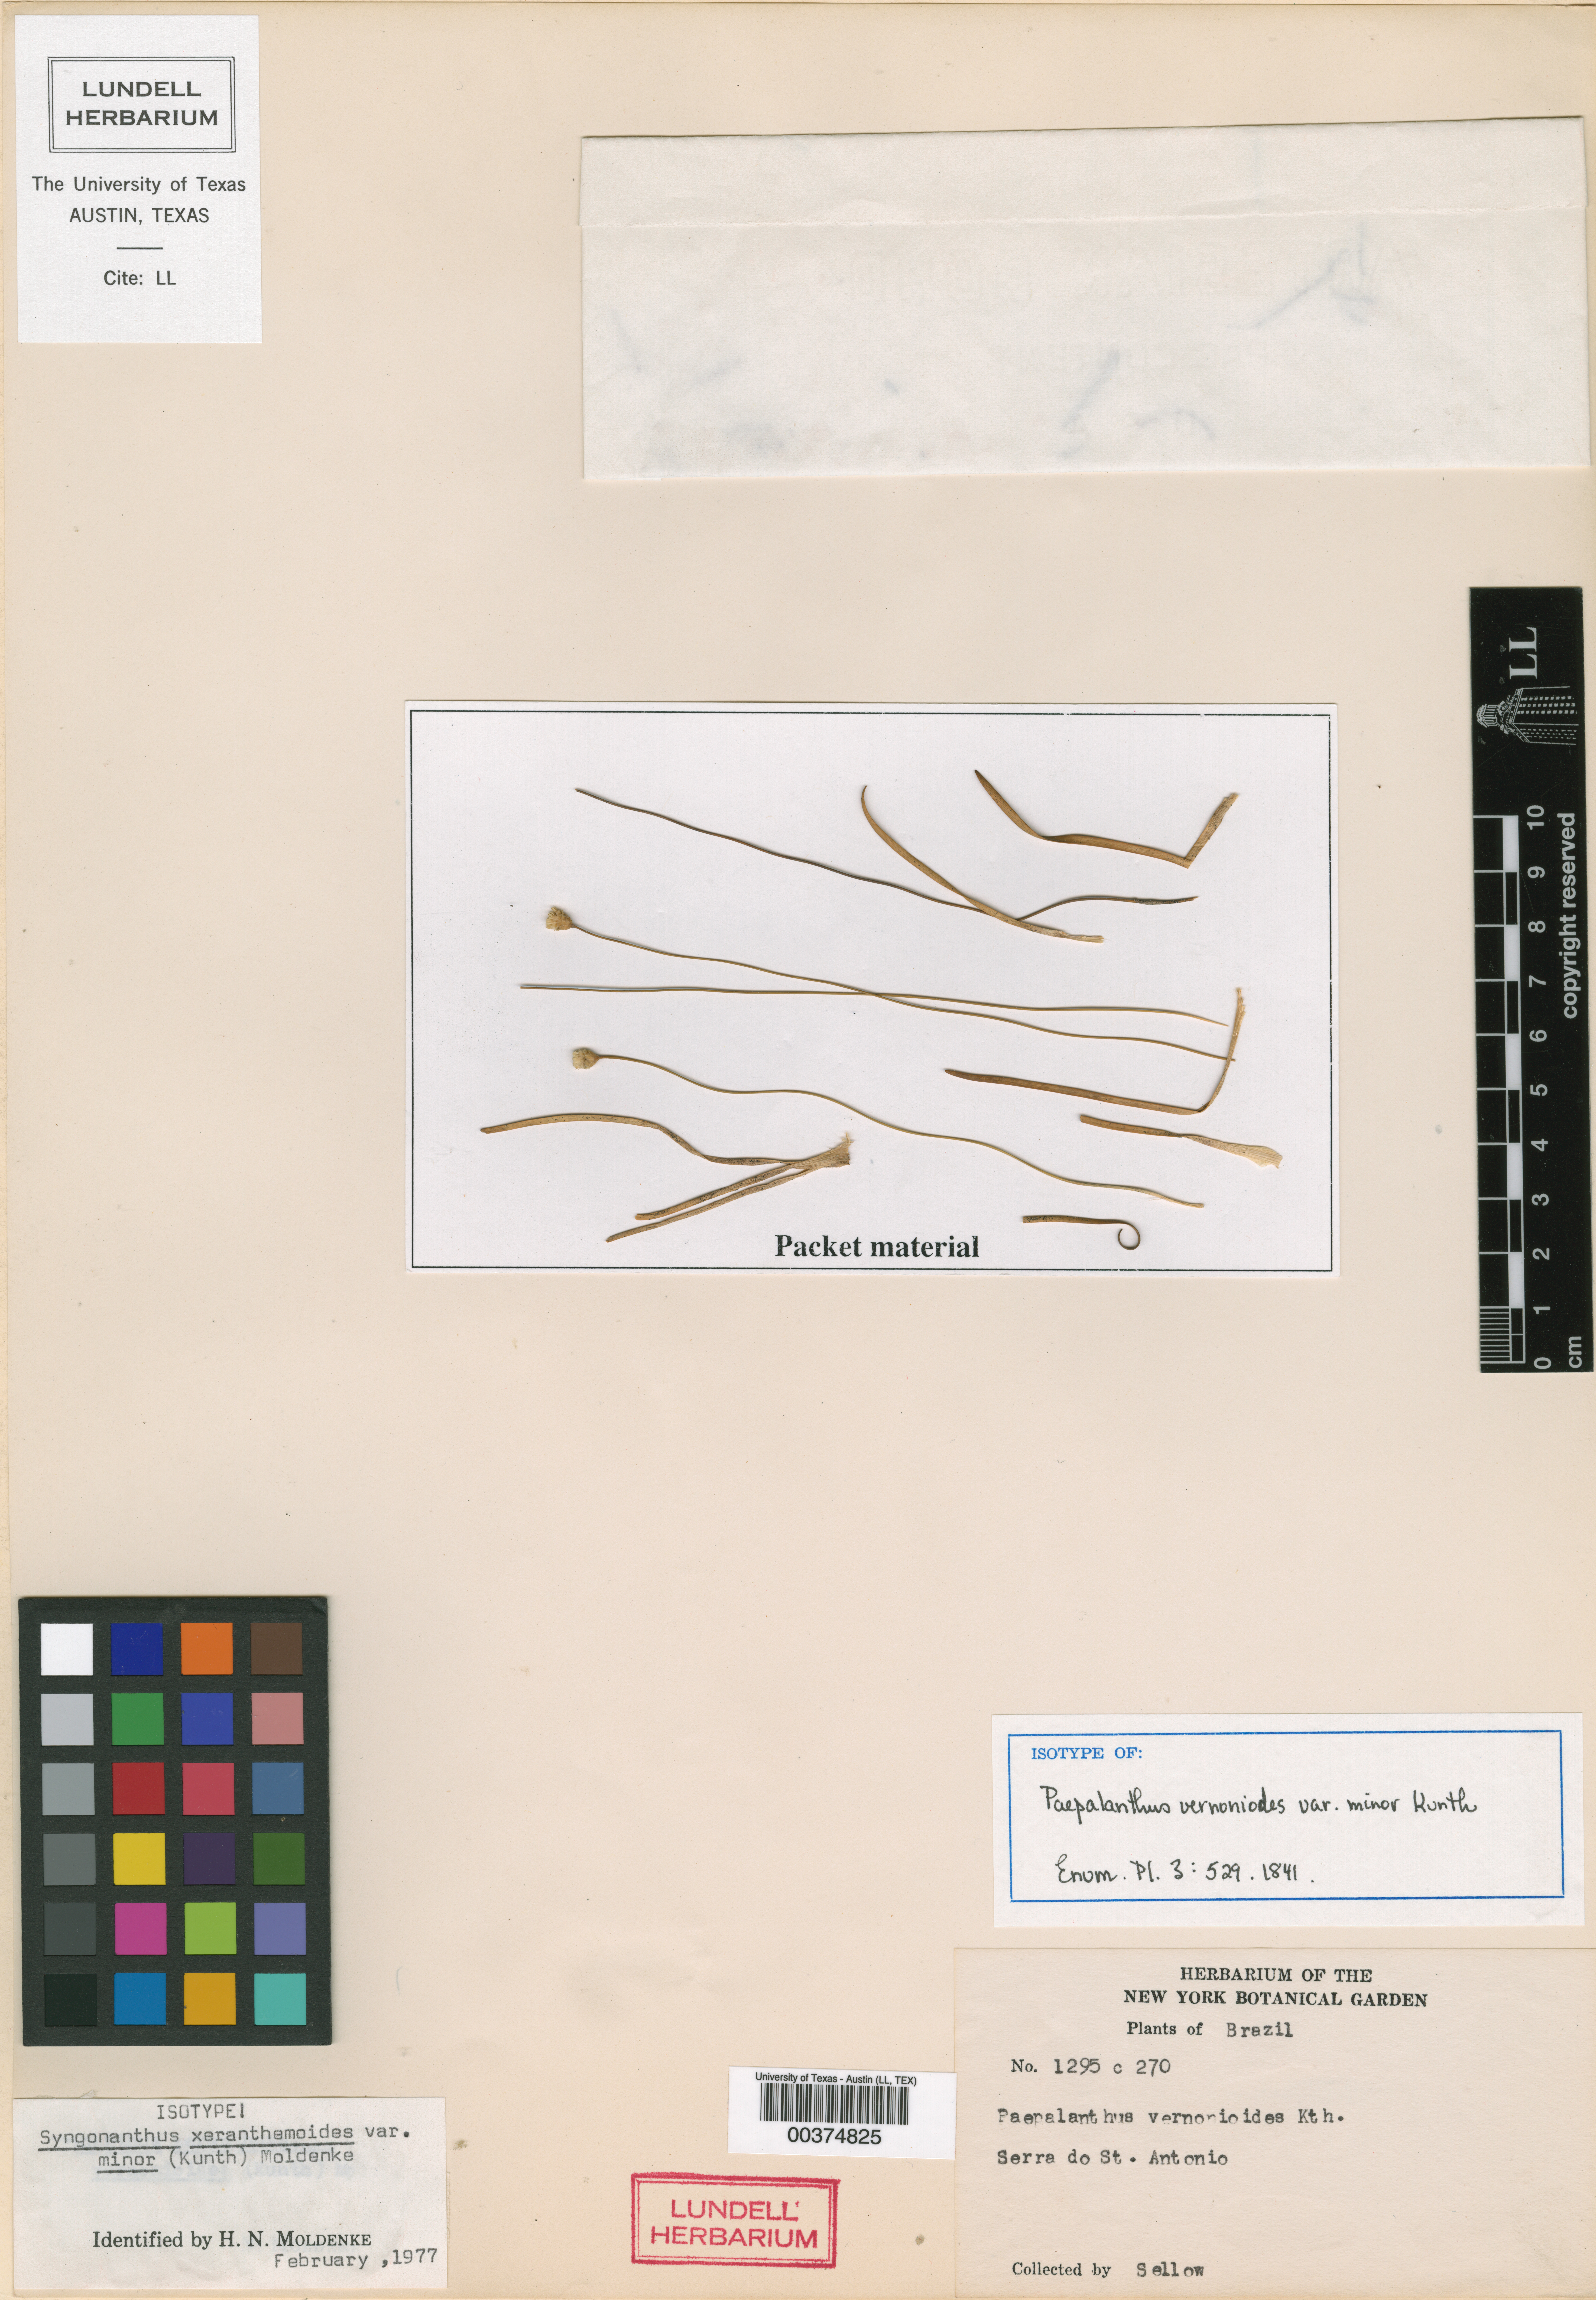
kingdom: Plantae
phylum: Tracheophyta
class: Liliopsida
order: Poales
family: Eriocaulaceae
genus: Comanthera
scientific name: Comanthera centauroides
